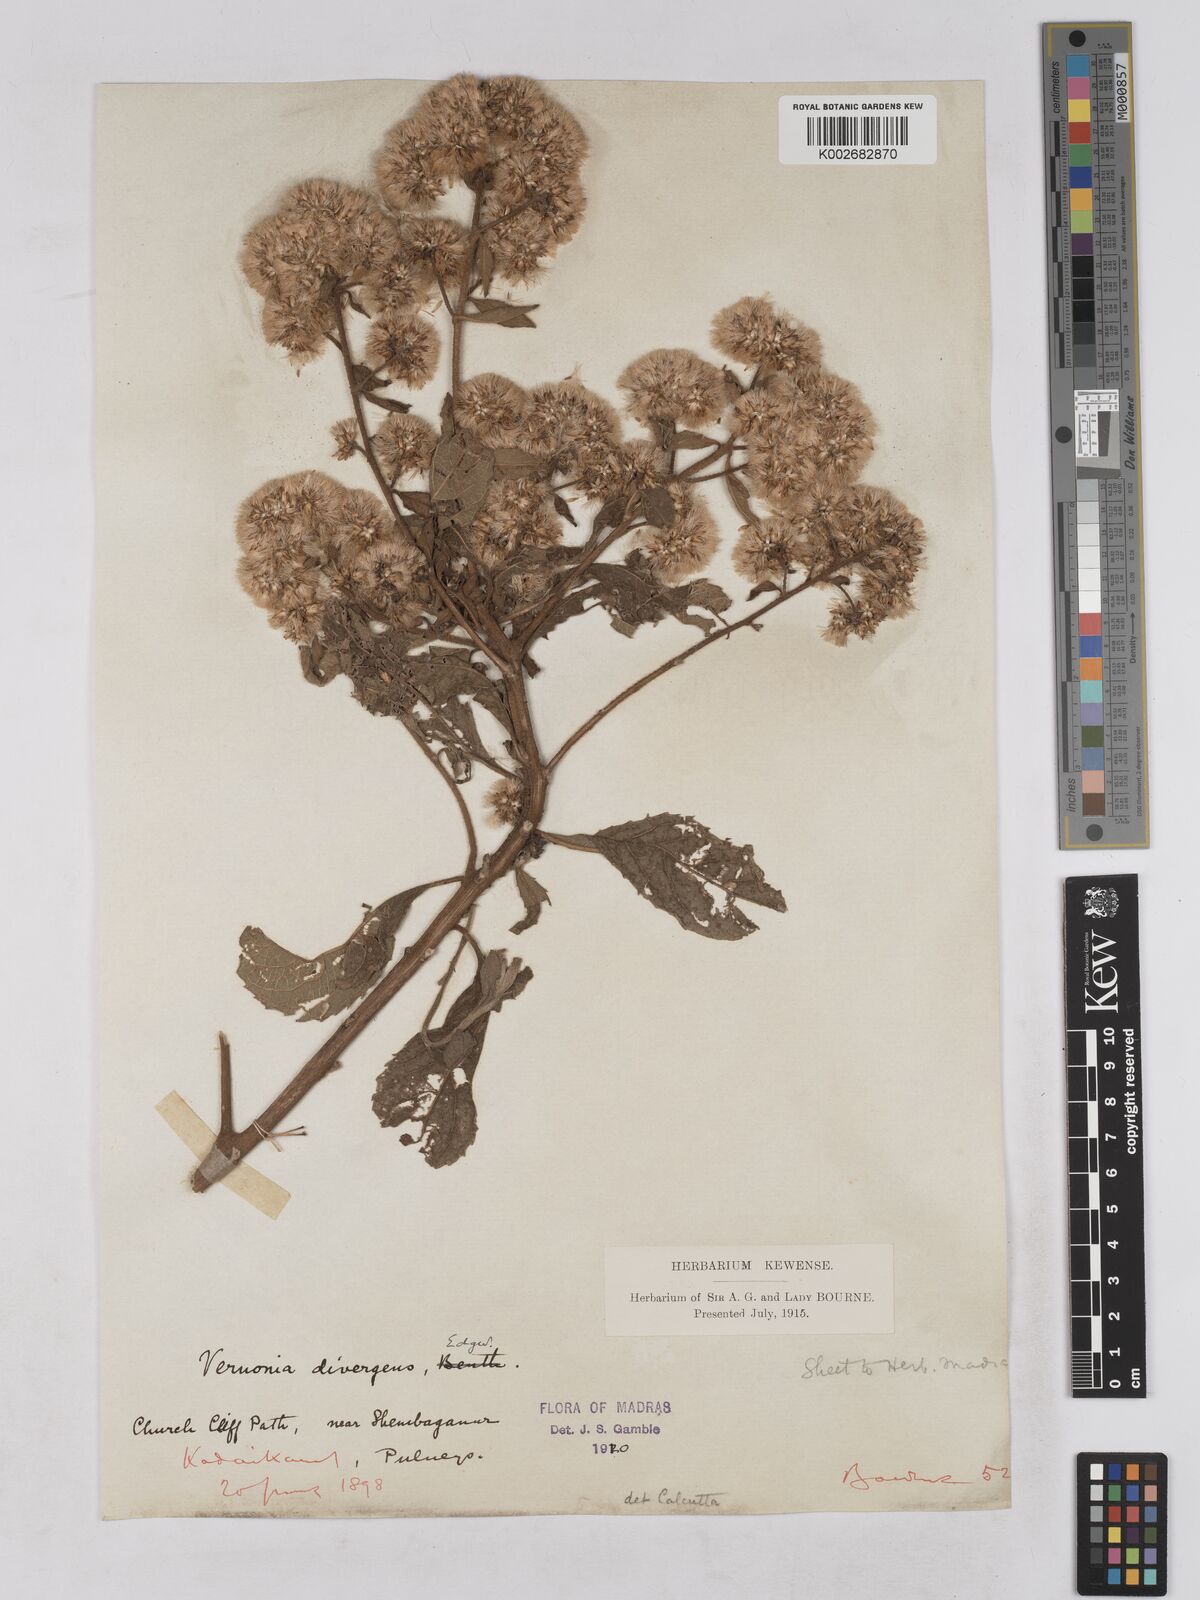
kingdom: Plantae
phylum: Tracheophyta
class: Magnoliopsida
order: Asterales
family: Asteraceae
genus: Acilepis
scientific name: Acilepis divergens
